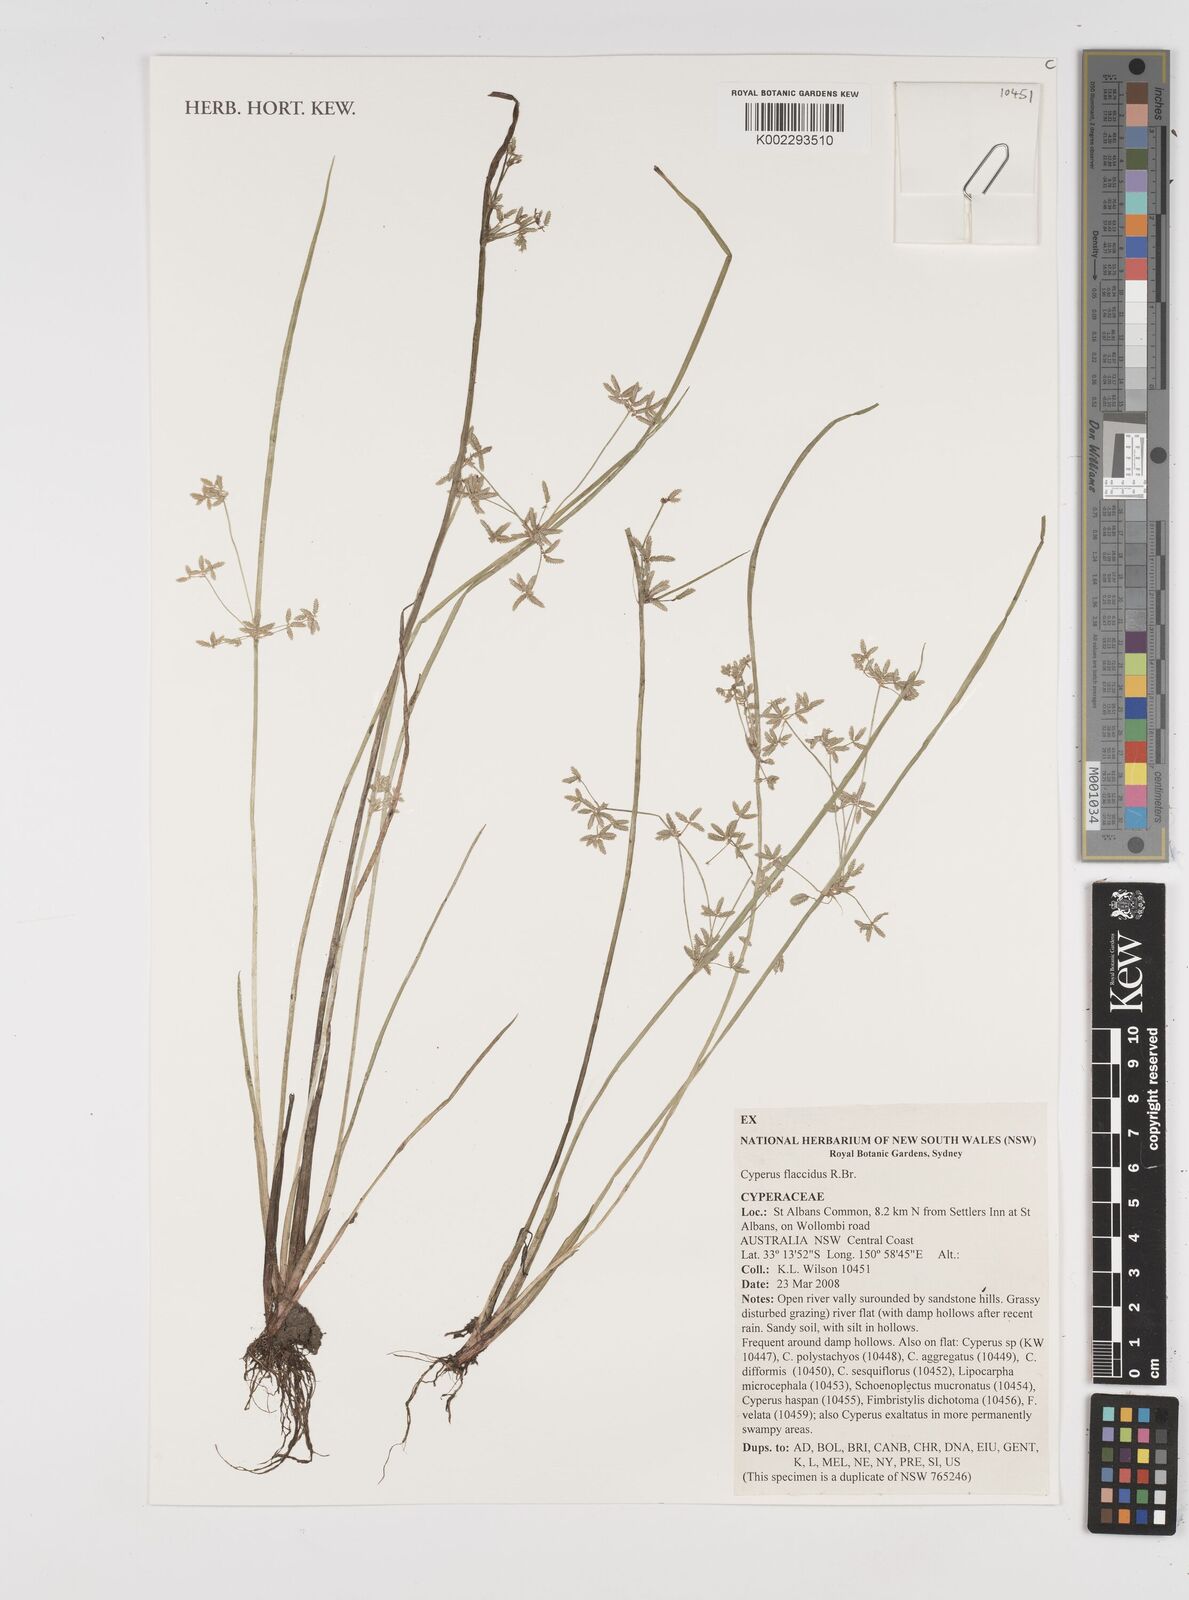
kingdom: Plantae
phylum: Tracheophyta
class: Liliopsida
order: Poales
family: Cyperaceae
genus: Cyperus
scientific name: Cyperus flaccidus
